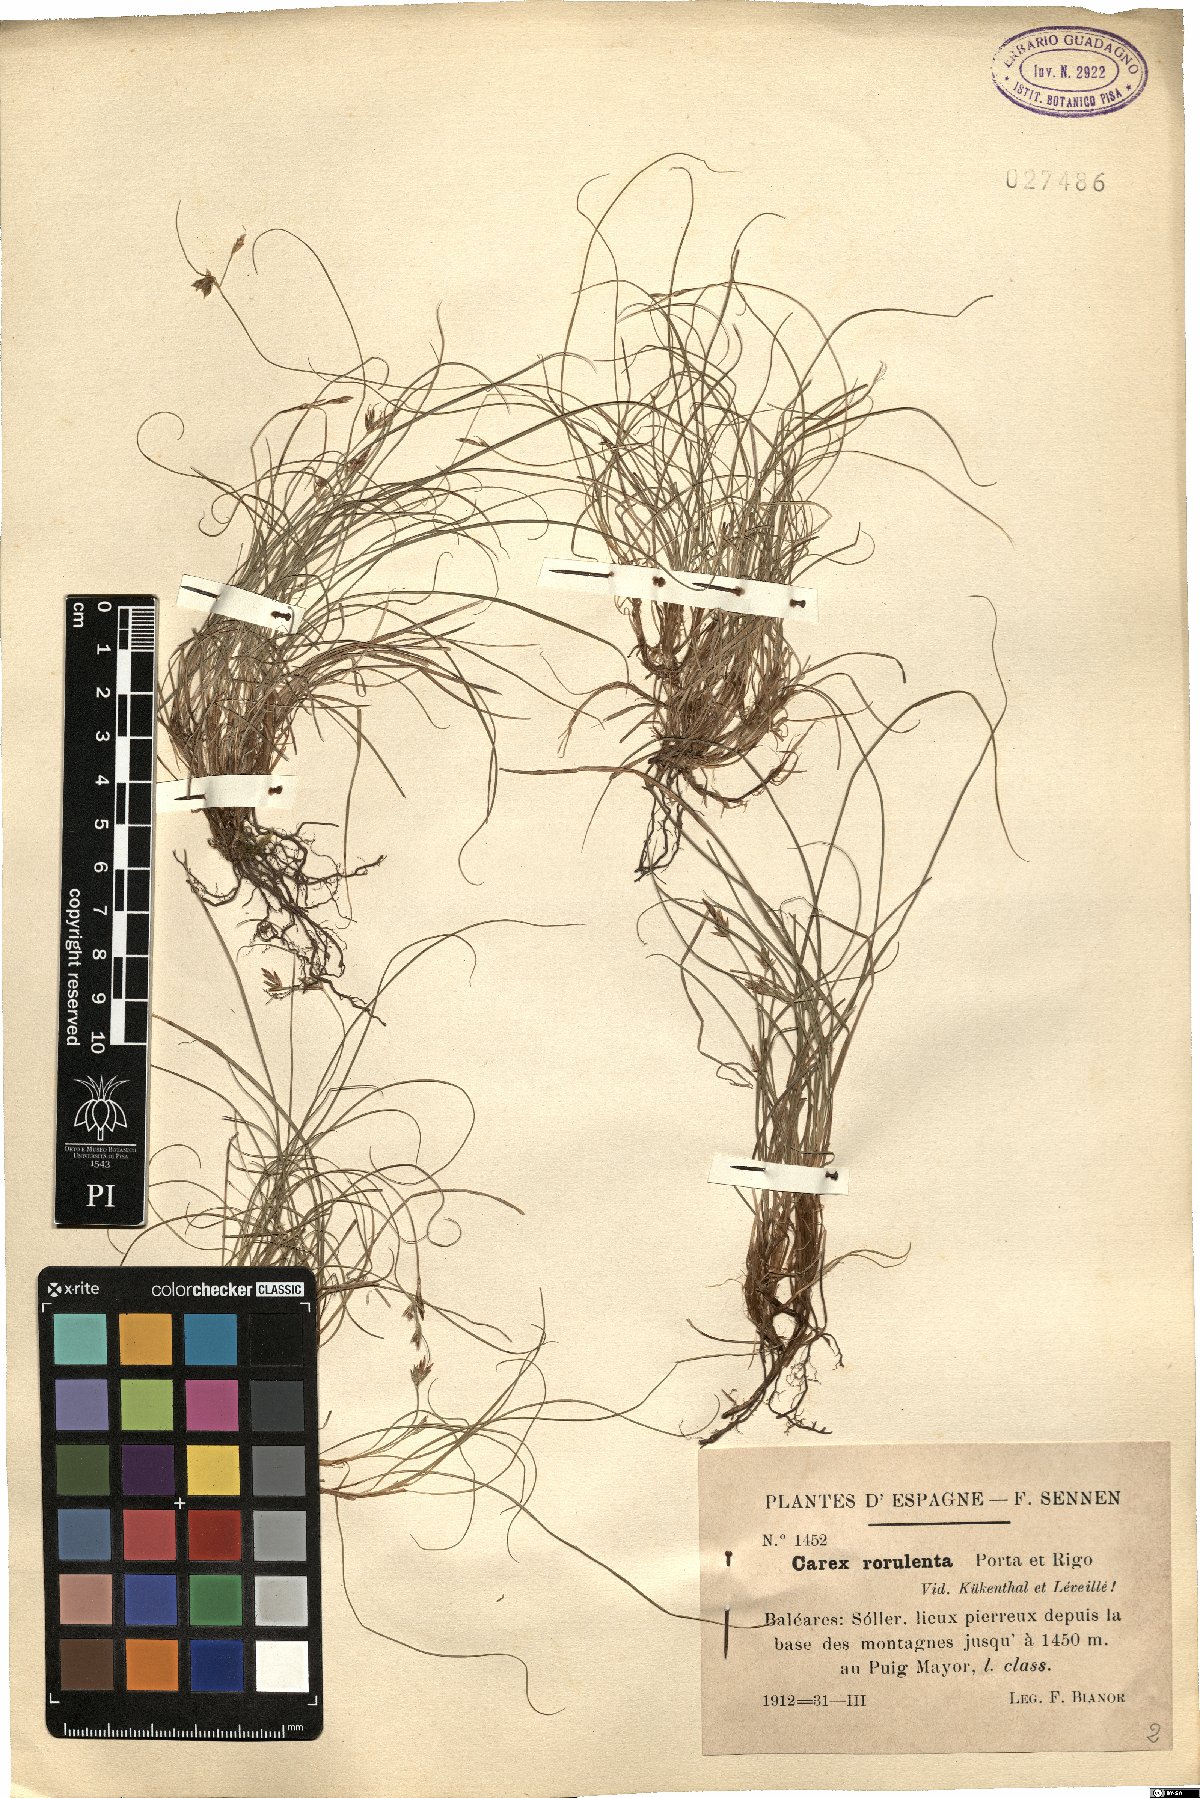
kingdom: Plantae
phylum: Tracheophyta
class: Liliopsida
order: Poales
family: Cyperaceae
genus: Carex
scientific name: Carex rorulenta
